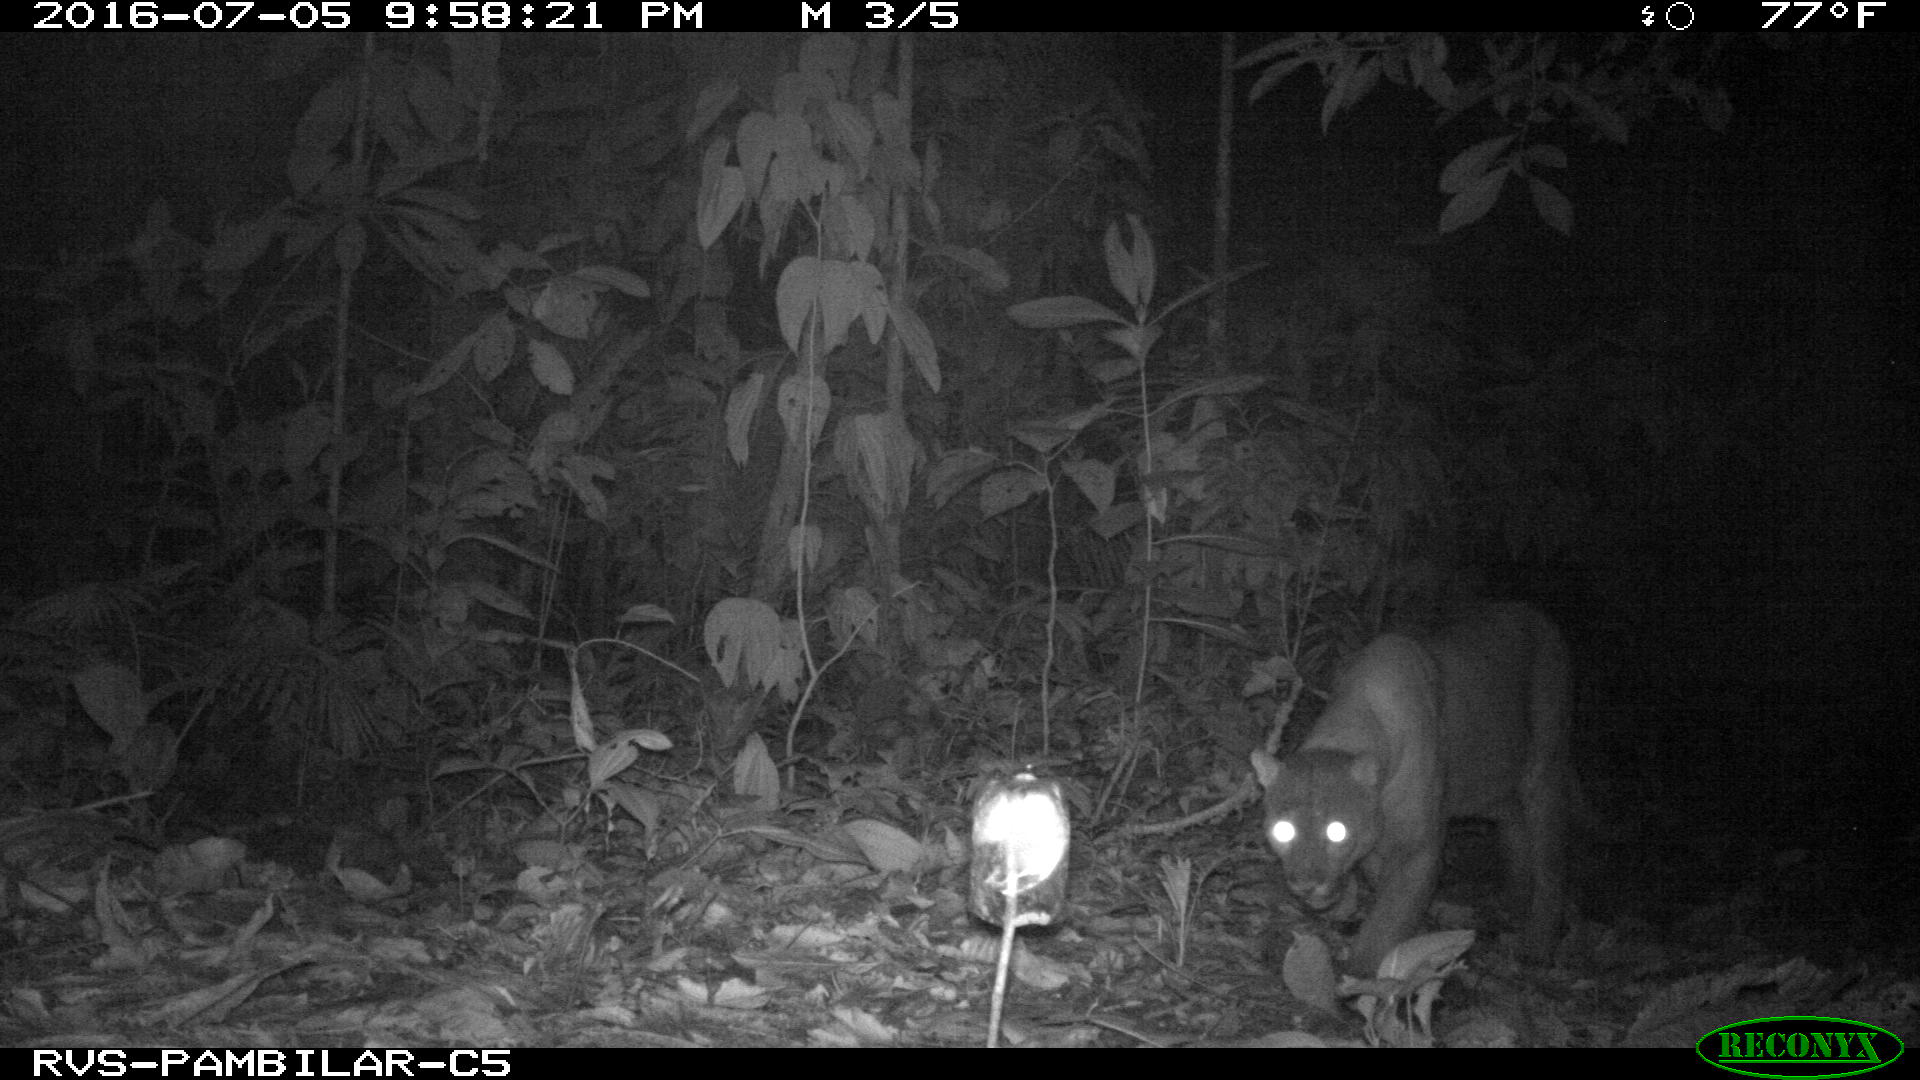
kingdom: Animalia
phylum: Chordata
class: Mammalia
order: Carnivora
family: Felidae
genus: Puma
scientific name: Puma concolor
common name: Puma
